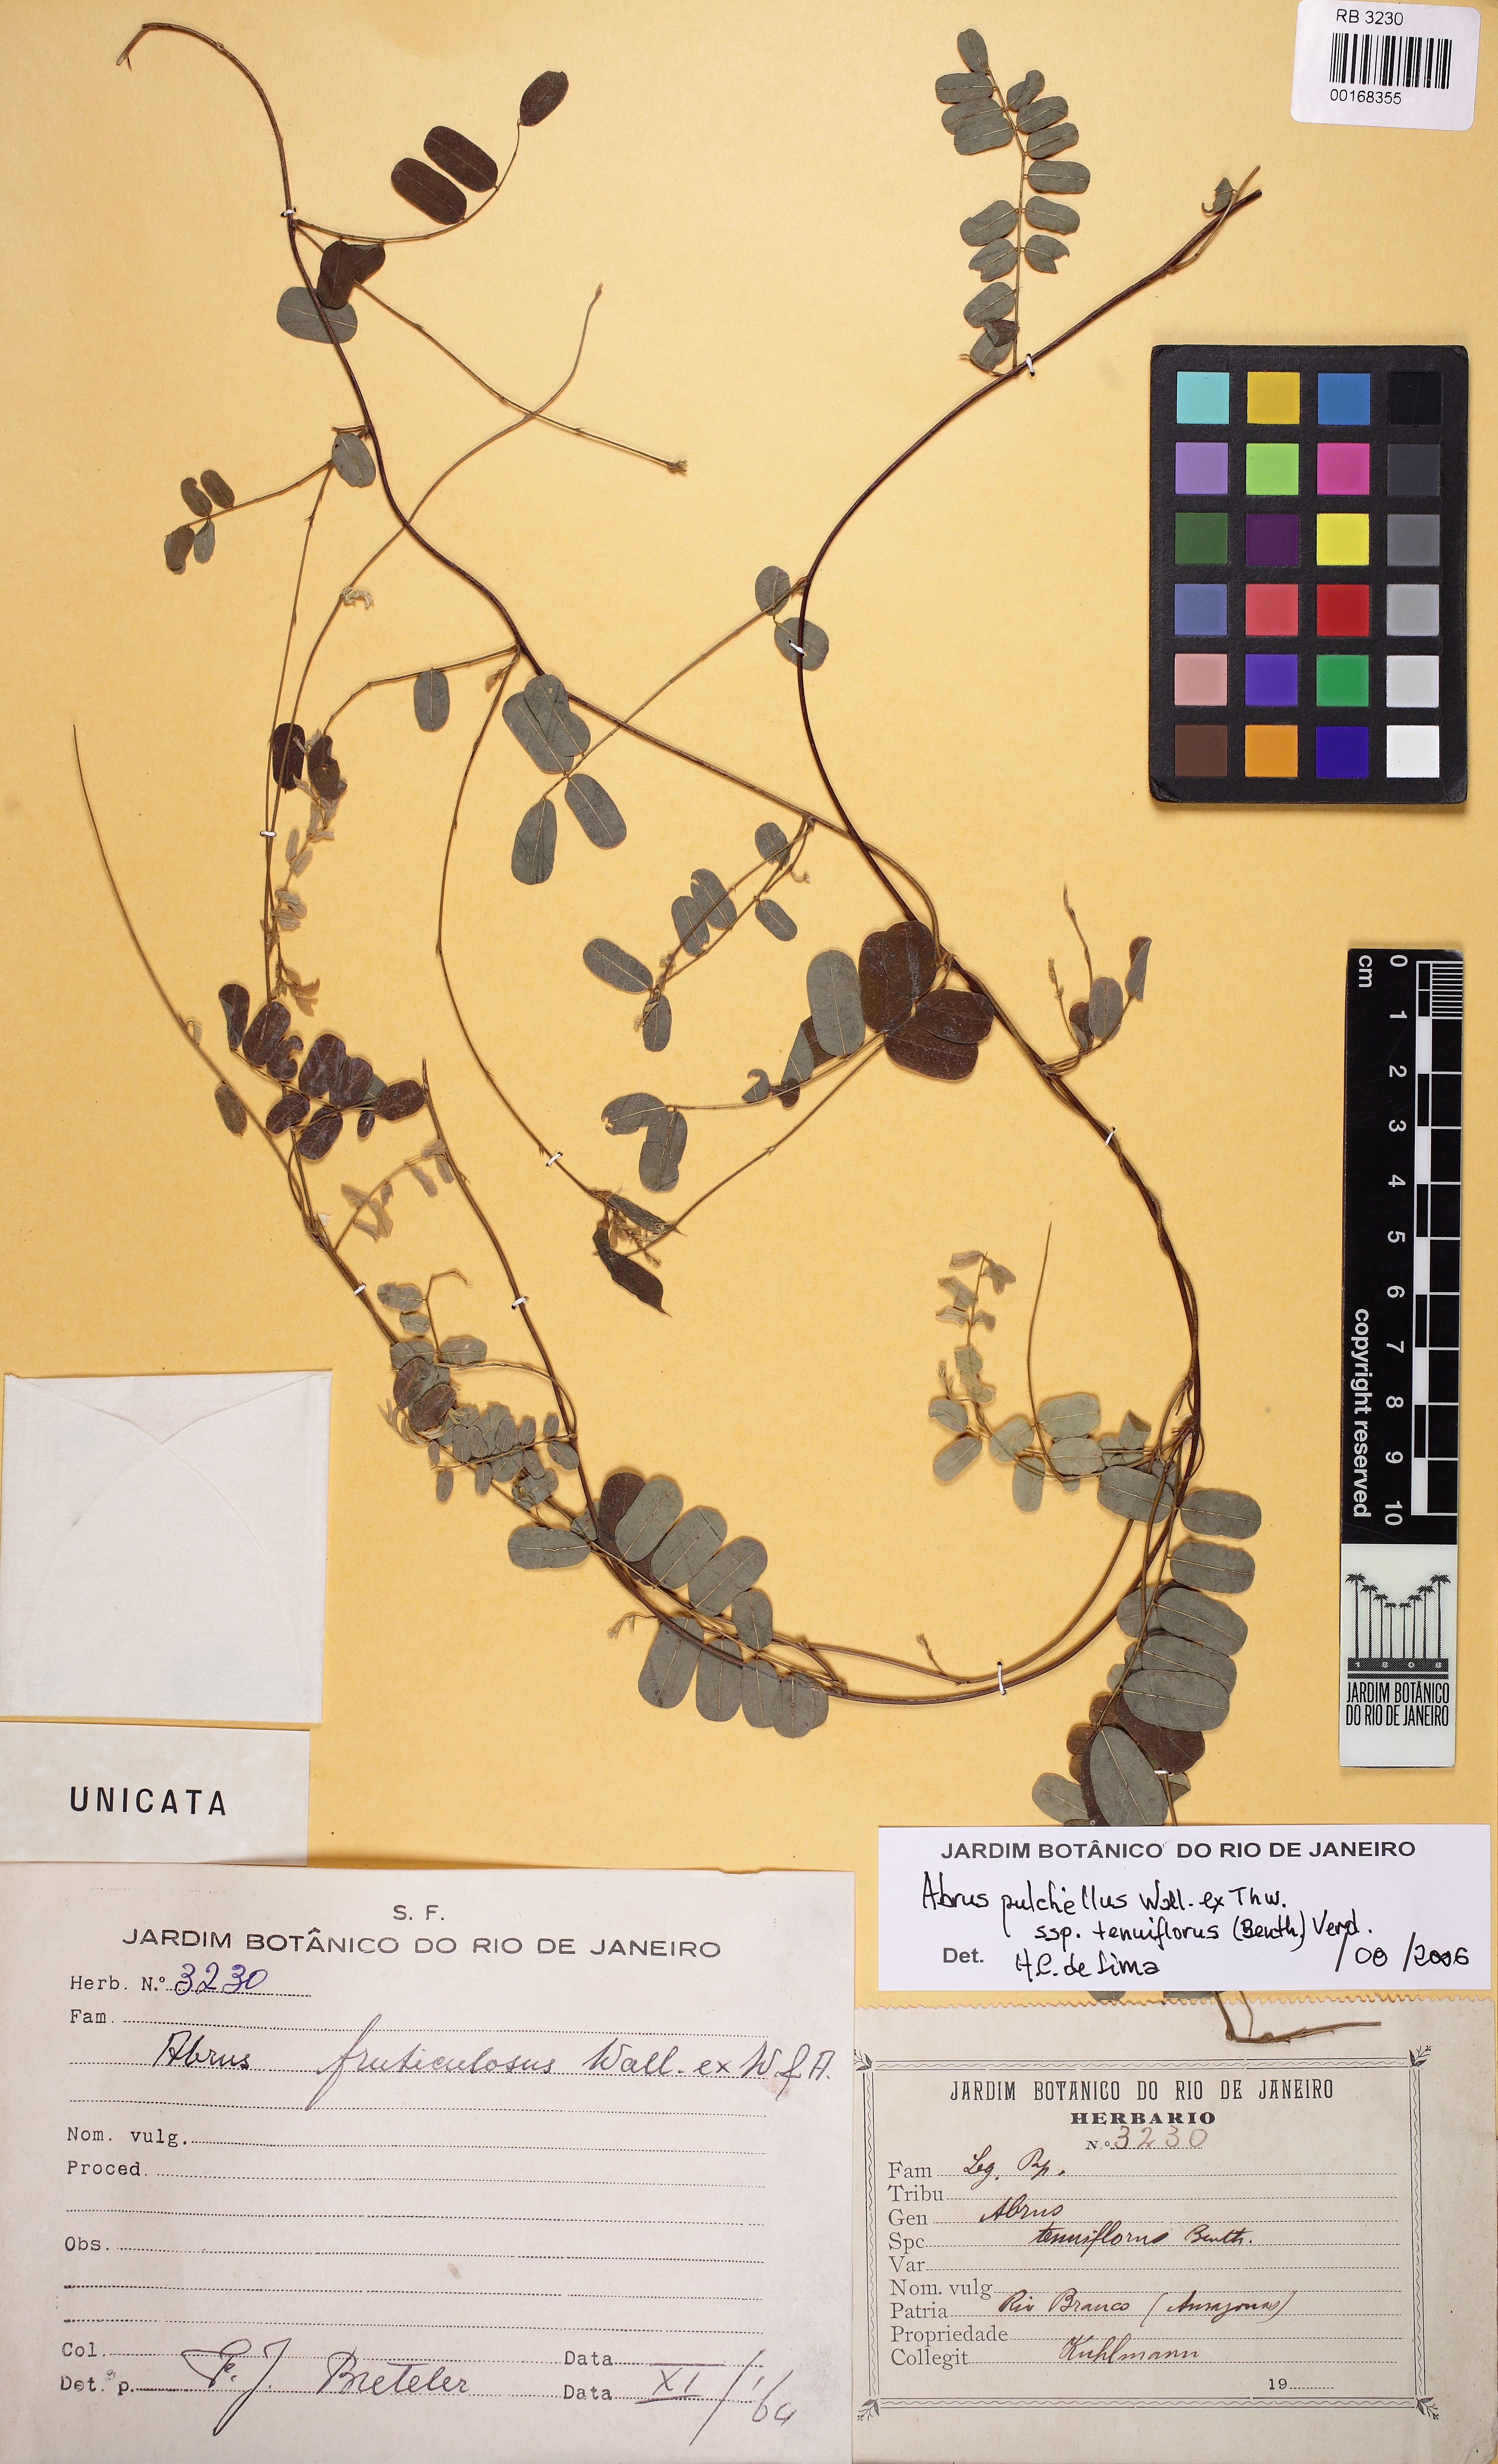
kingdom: Plantae
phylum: Tracheophyta
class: Magnoliopsida
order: Fabales
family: Fabaceae
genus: Abrus
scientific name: Abrus fruticulosus
